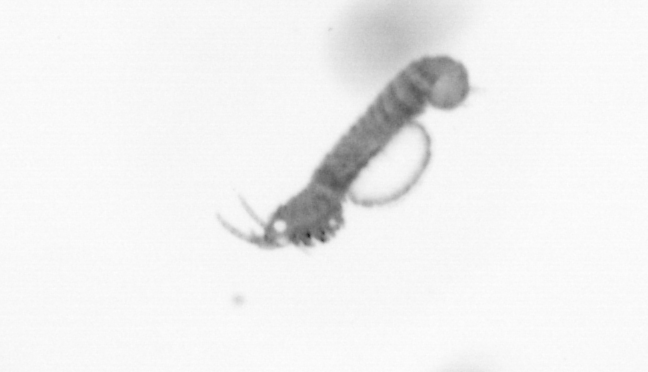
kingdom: Animalia
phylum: Annelida
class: Polychaeta
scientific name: Polychaeta
